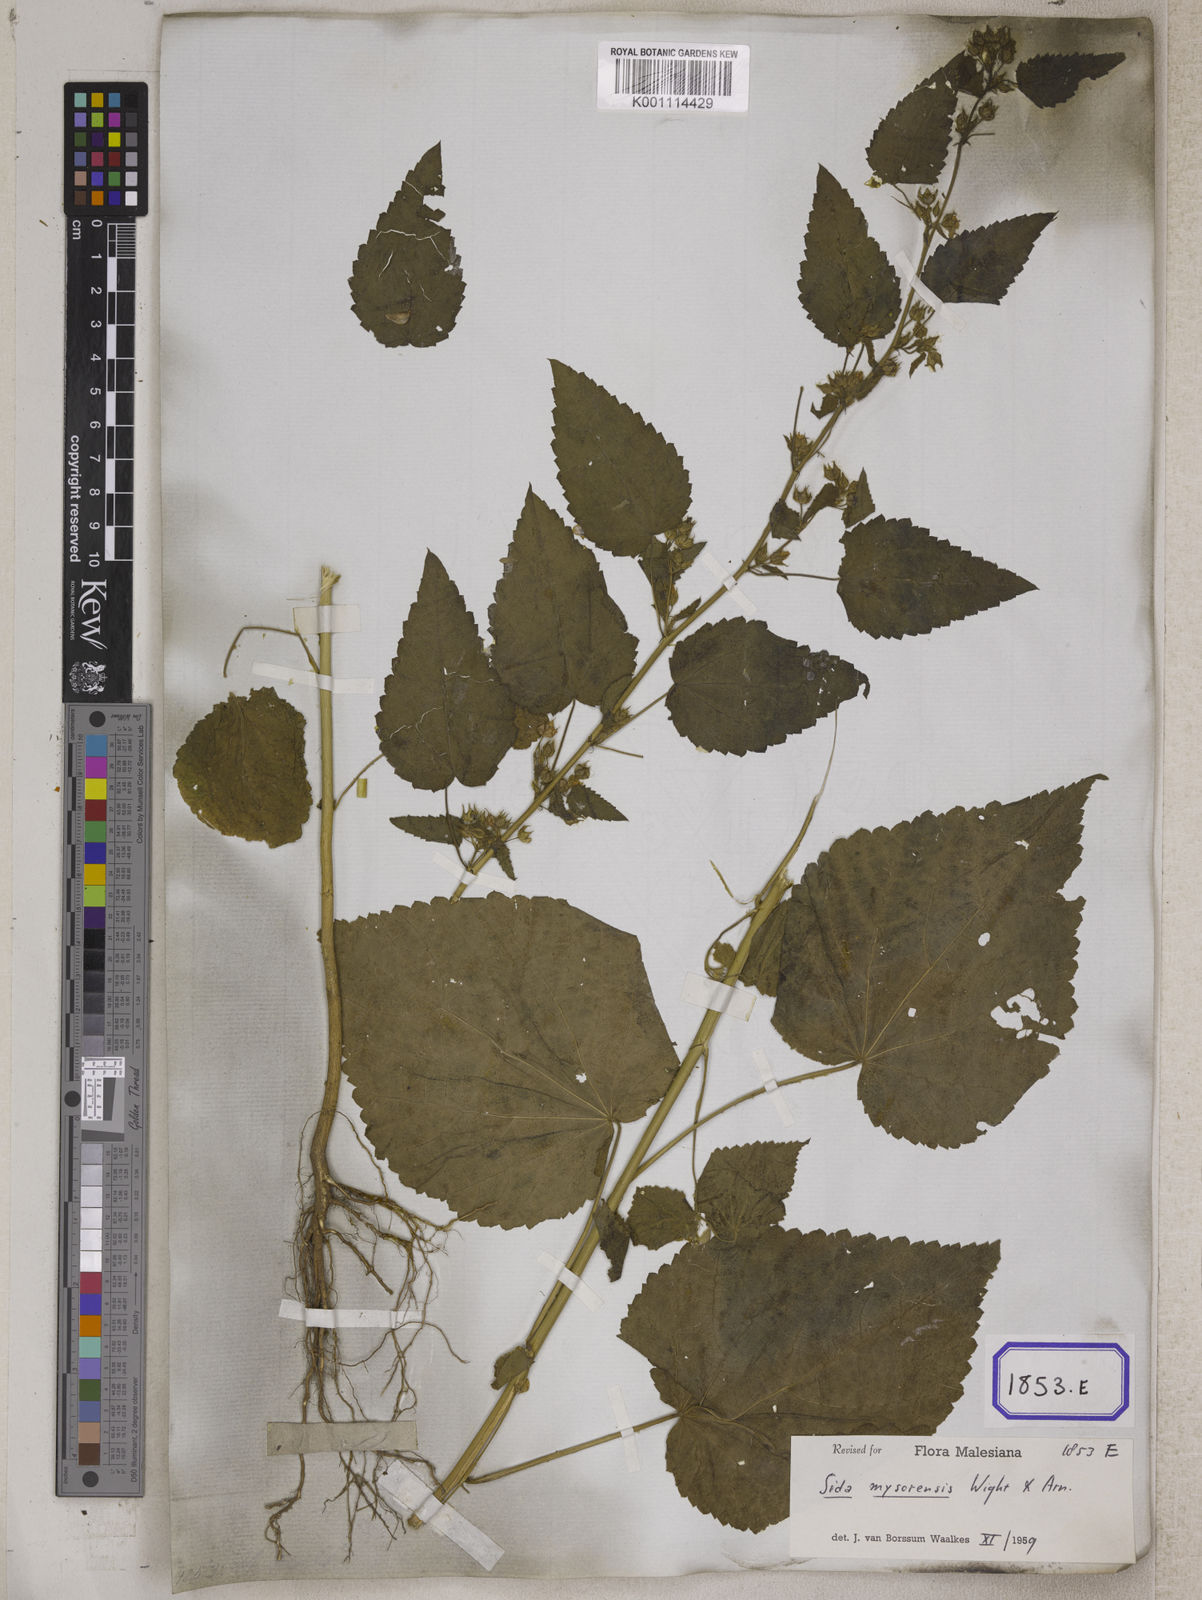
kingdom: Plantae
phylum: Tracheophyta
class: Magnoliopsida
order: Malvales
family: Malvaceae
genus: Sida
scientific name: Sida glutinosa
